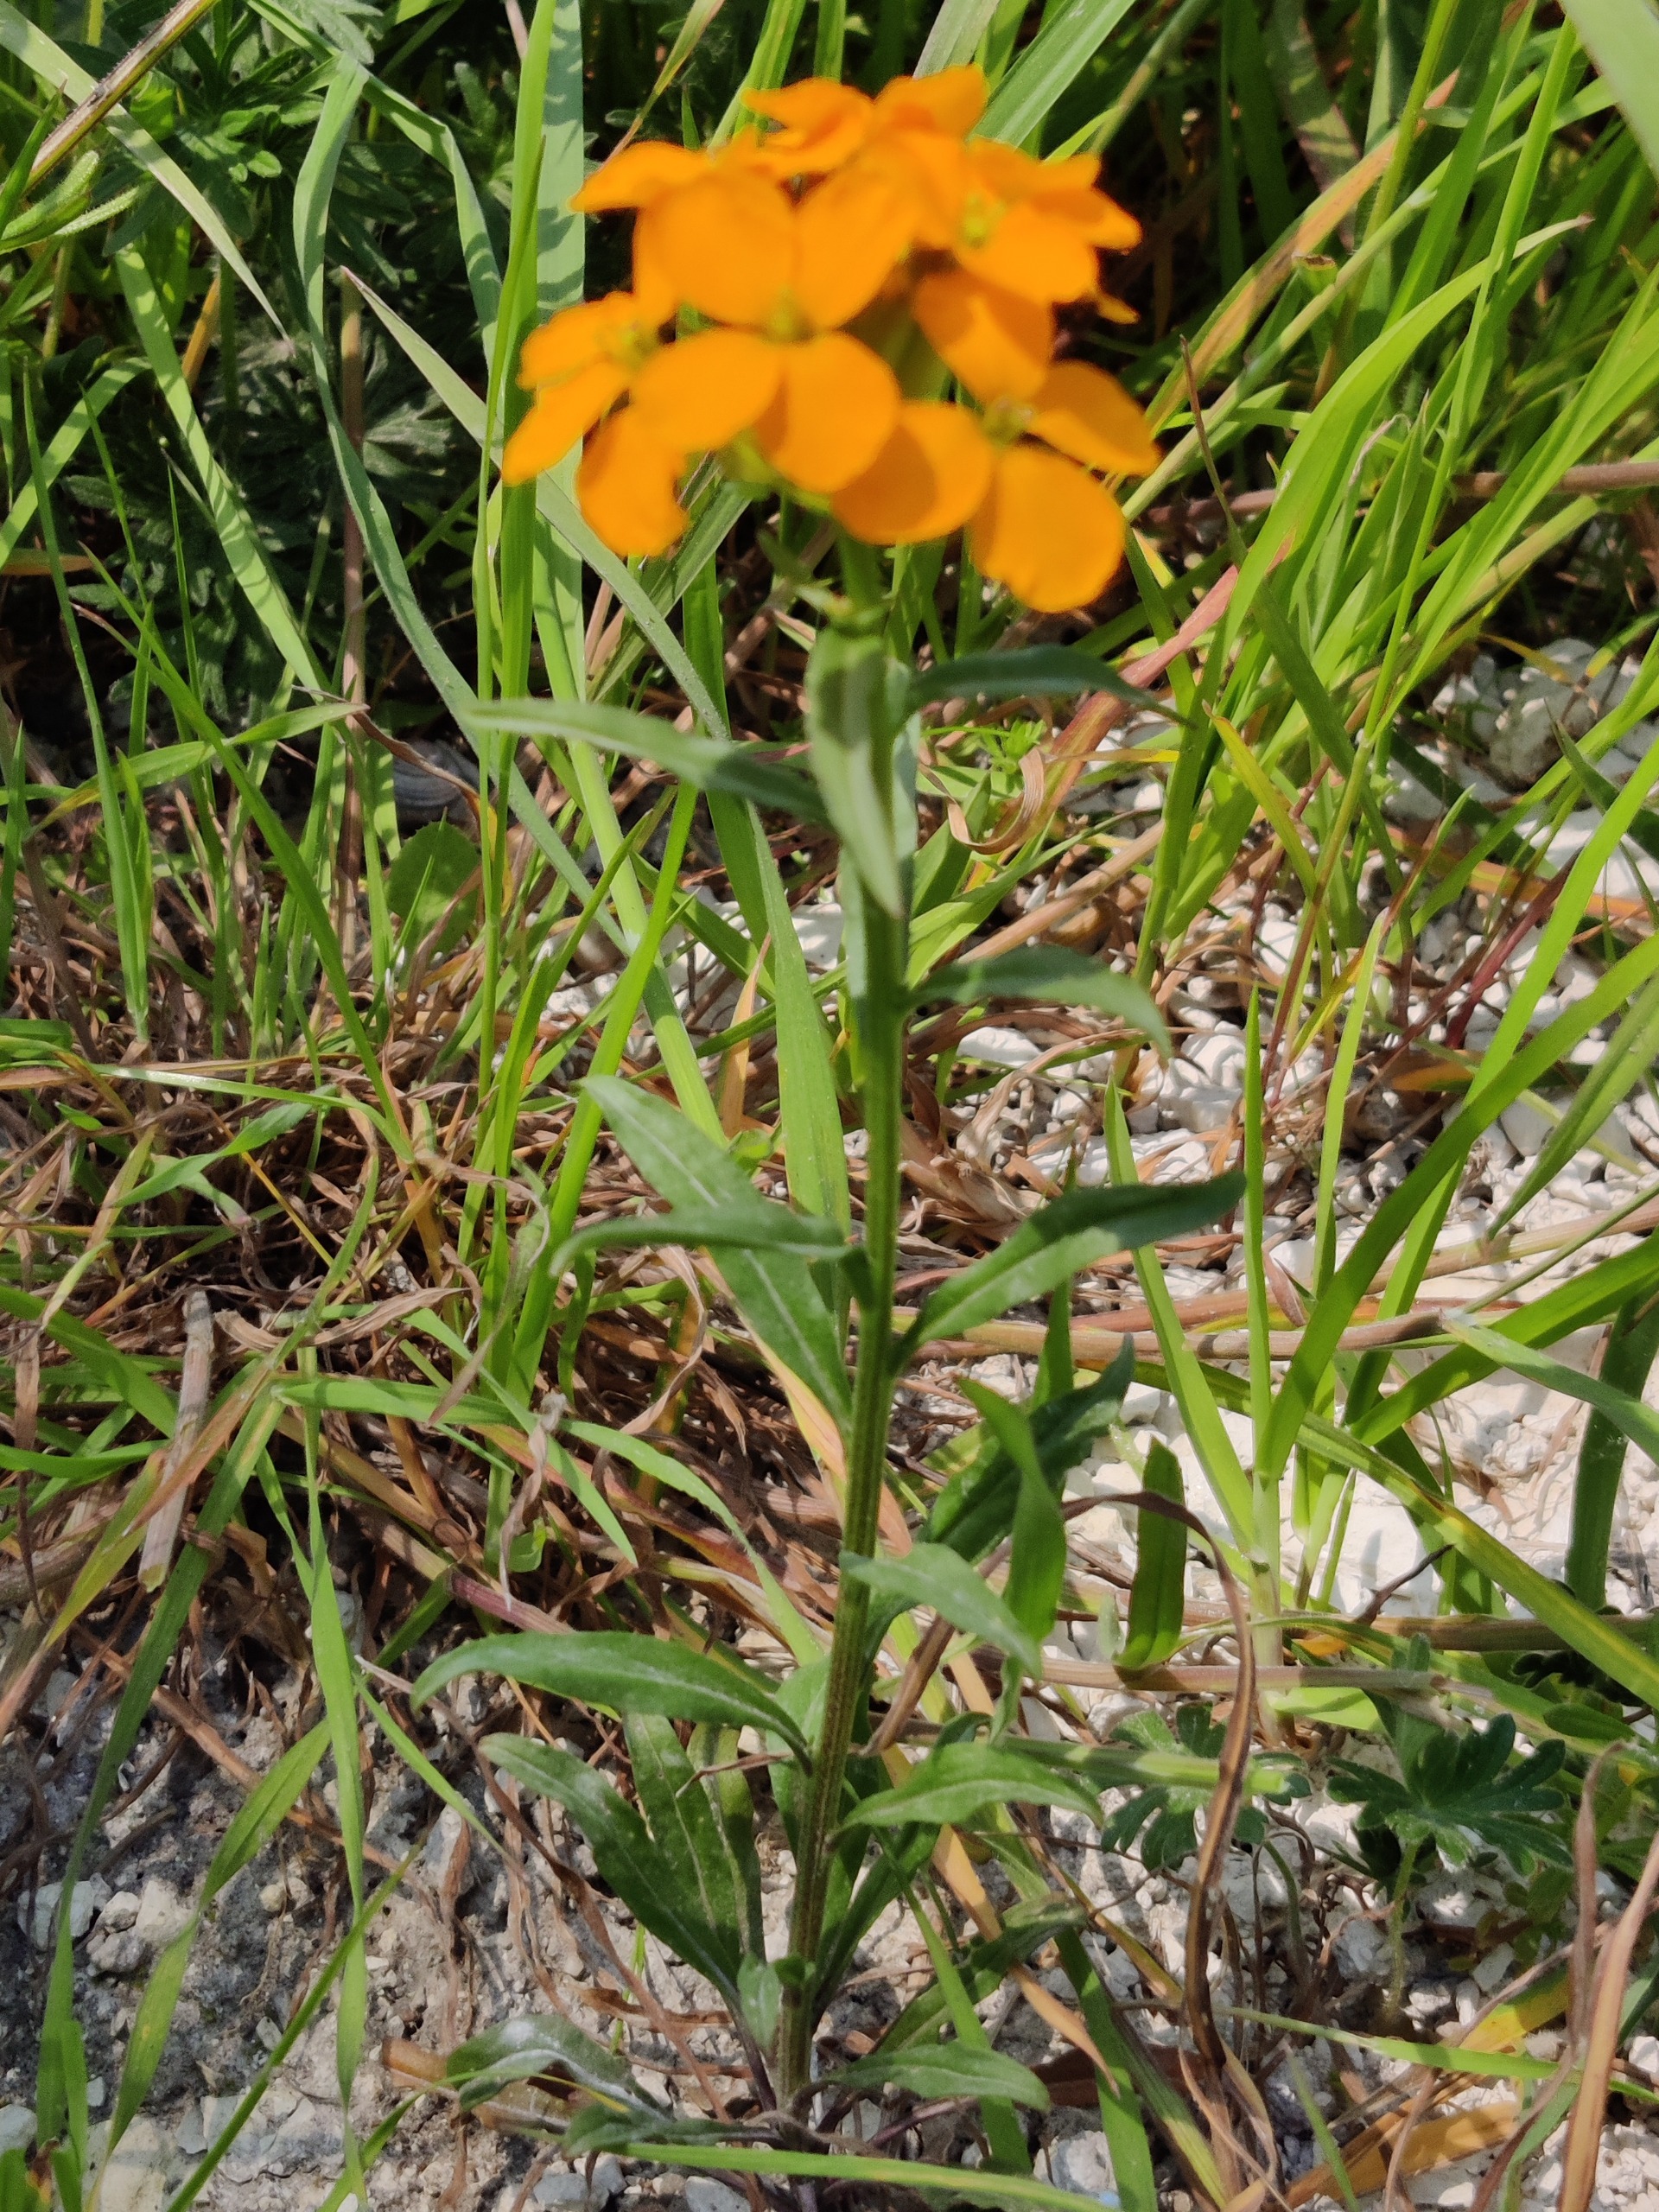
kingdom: Plantae
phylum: Tracheophyta
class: Magnoliopsida
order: Brassicales
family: Brassicaceae
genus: Erysimum
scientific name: Erysimum cheiri
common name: Gyldenlak
